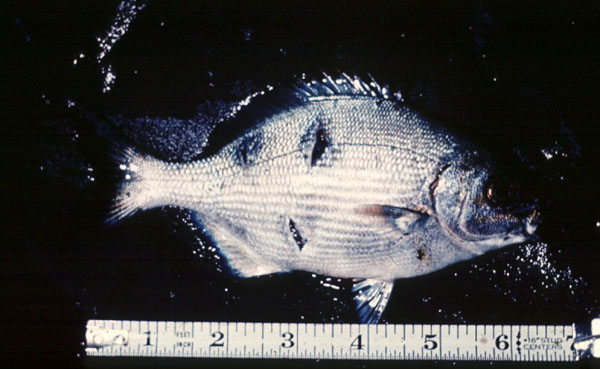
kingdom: Animalia
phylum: Chordata
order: Perciformes
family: Kyphosidae
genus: Kyphosus
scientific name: Kyphosus
